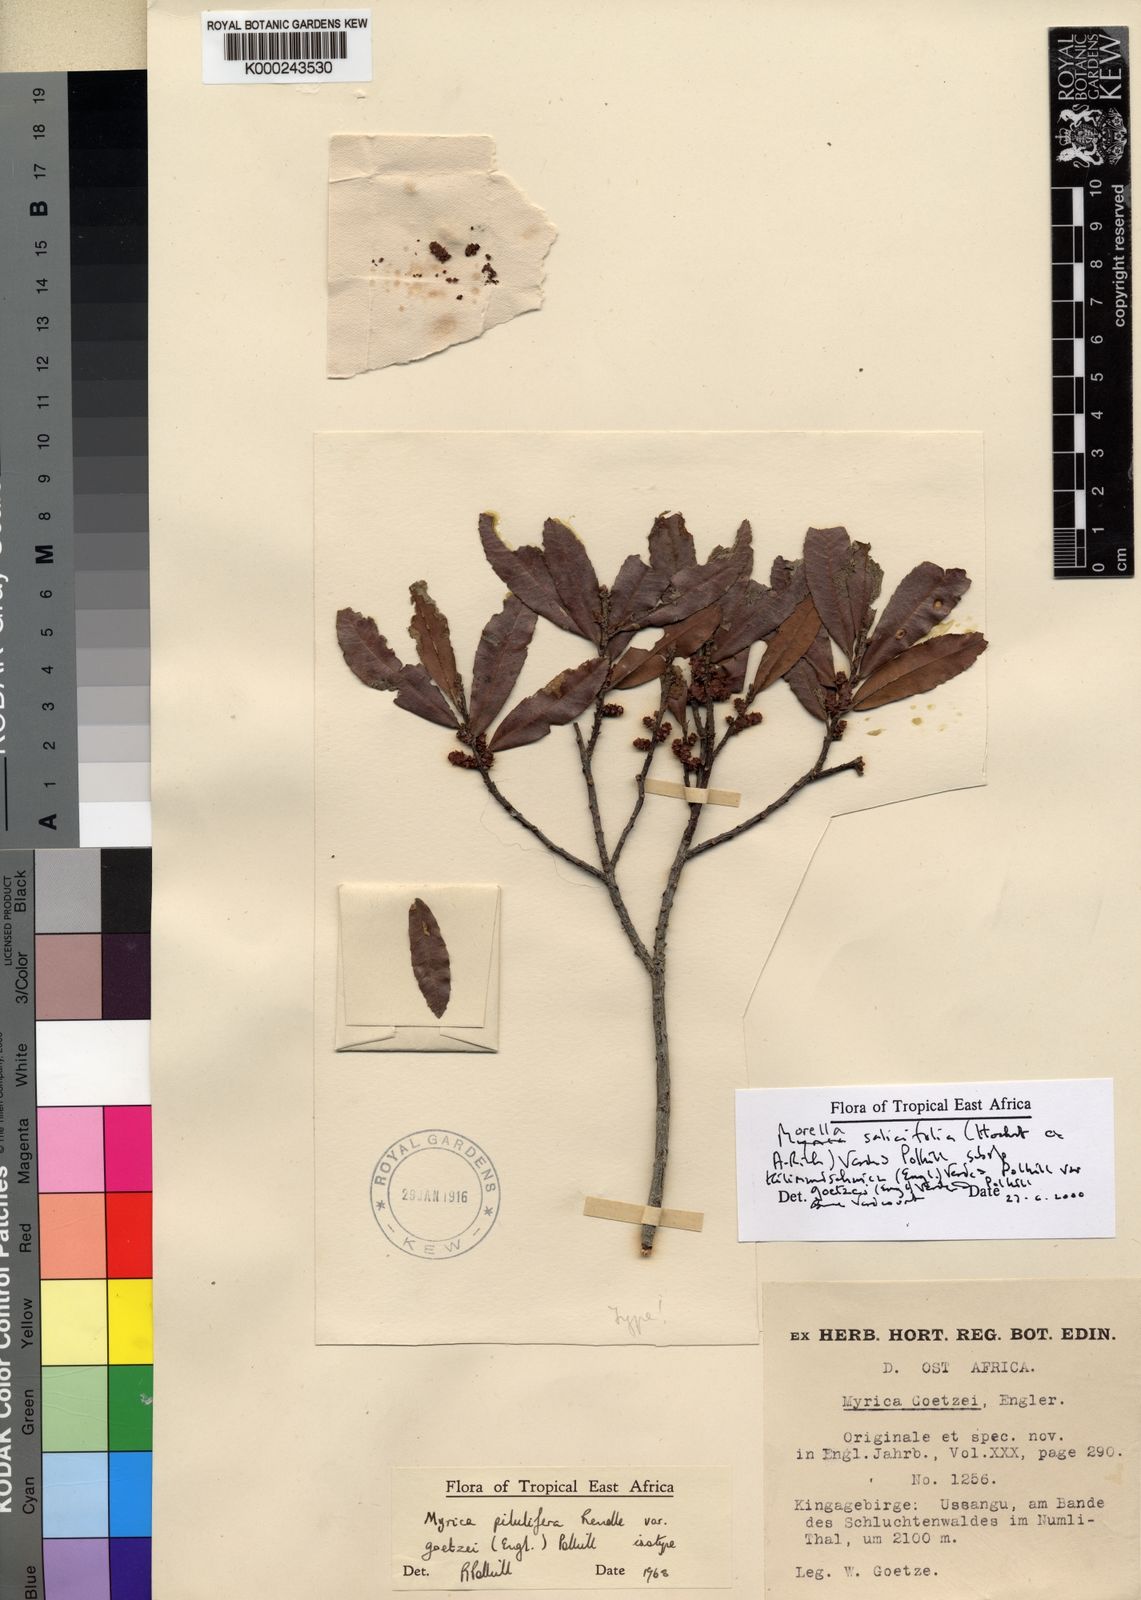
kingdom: Plantae
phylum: Tracheophyta
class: Magnoliopsida
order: Fagales
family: Myricaceae
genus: Morella
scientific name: Morella salicifolia
